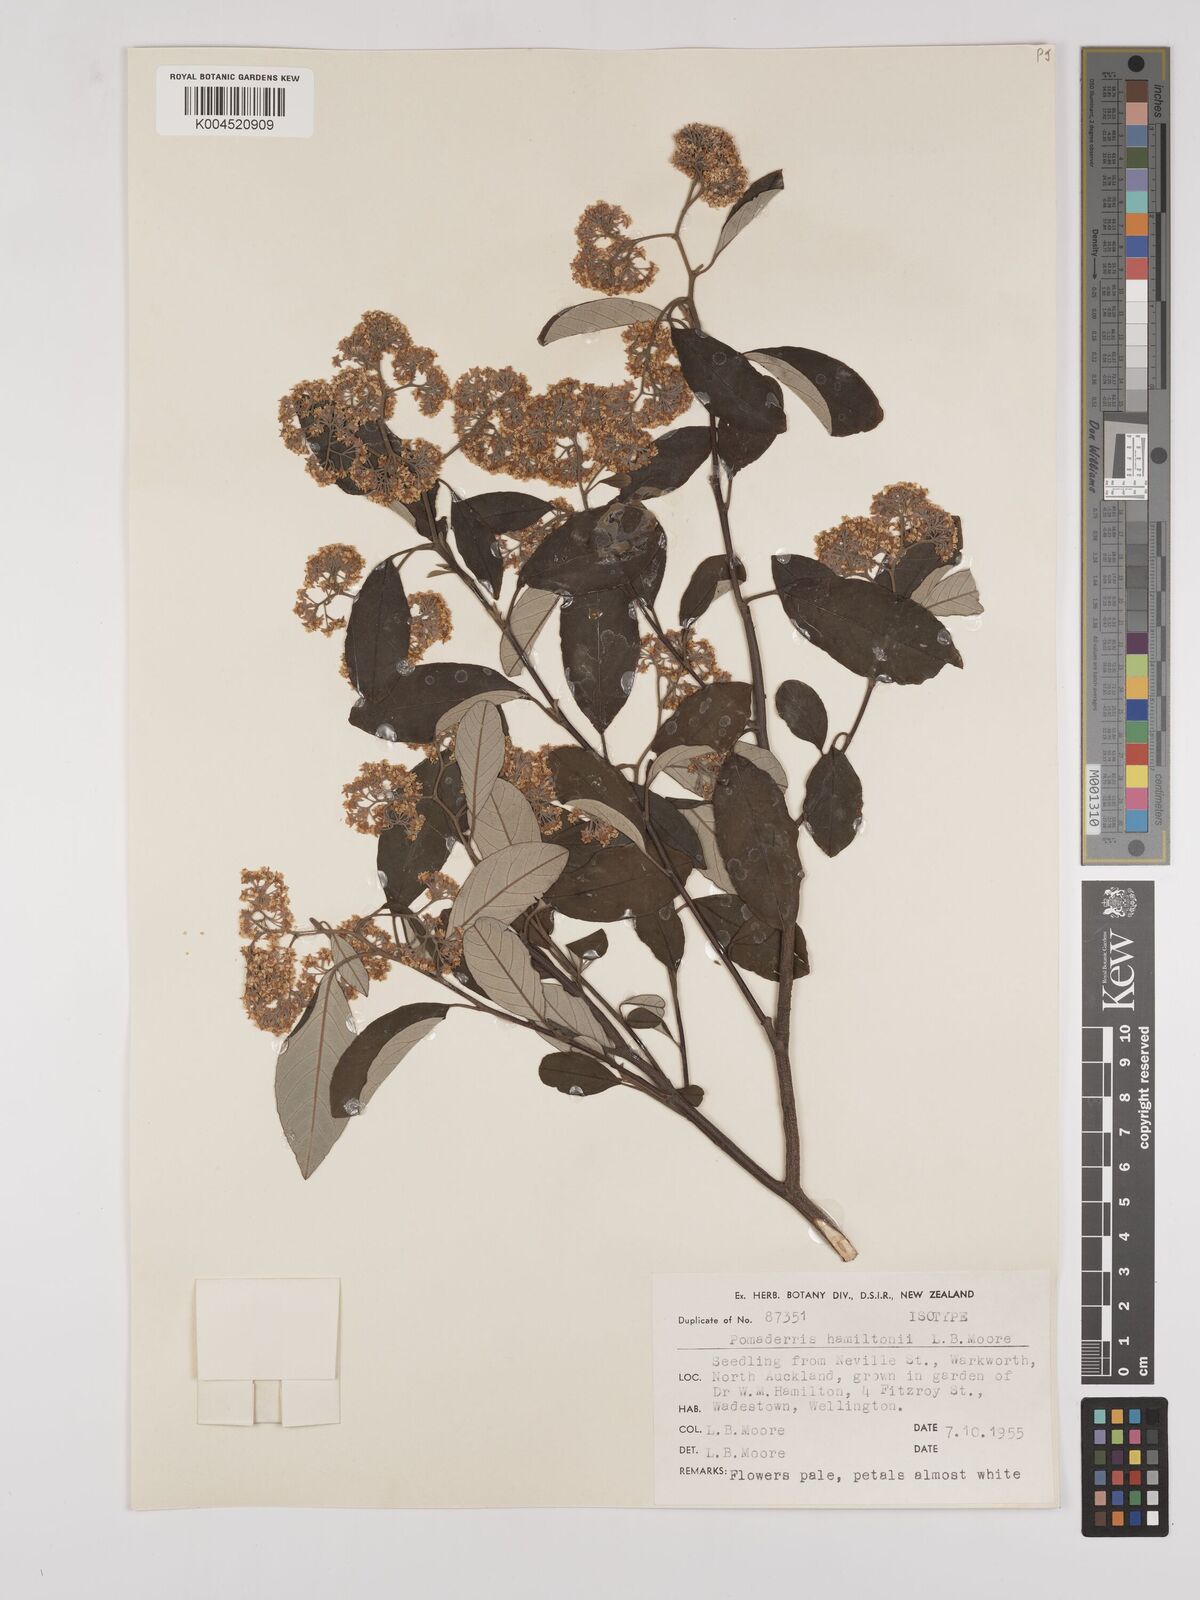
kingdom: Plantae
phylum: Tracheophyta
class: Magnoliopsida
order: Rosales
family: Rhamnaceae
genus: Pomaderris
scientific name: Pomaderris hamiltonii
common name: Pale-flowered kumarahou
